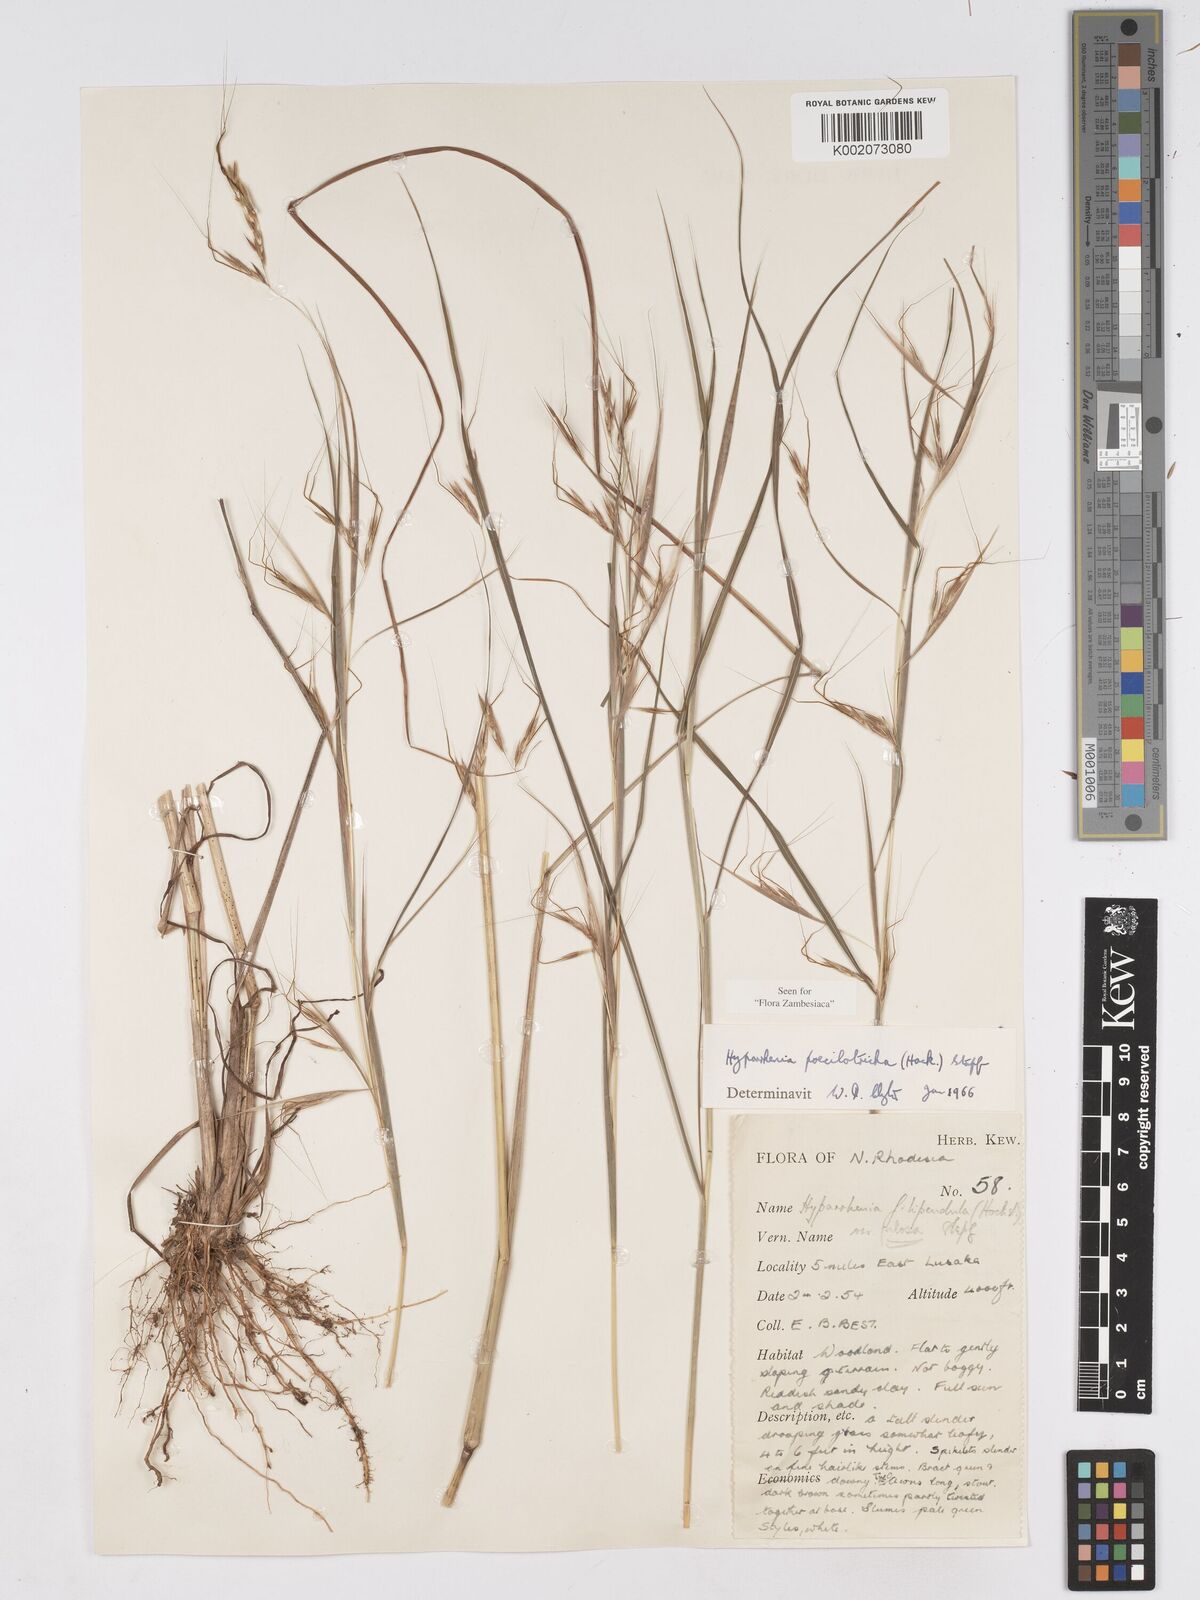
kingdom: Plantae
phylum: Tracheophyta
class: Liliopsida
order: Poales
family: Poaceae
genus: Hyparrhenia
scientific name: Hyparrhenia poecilotricha
